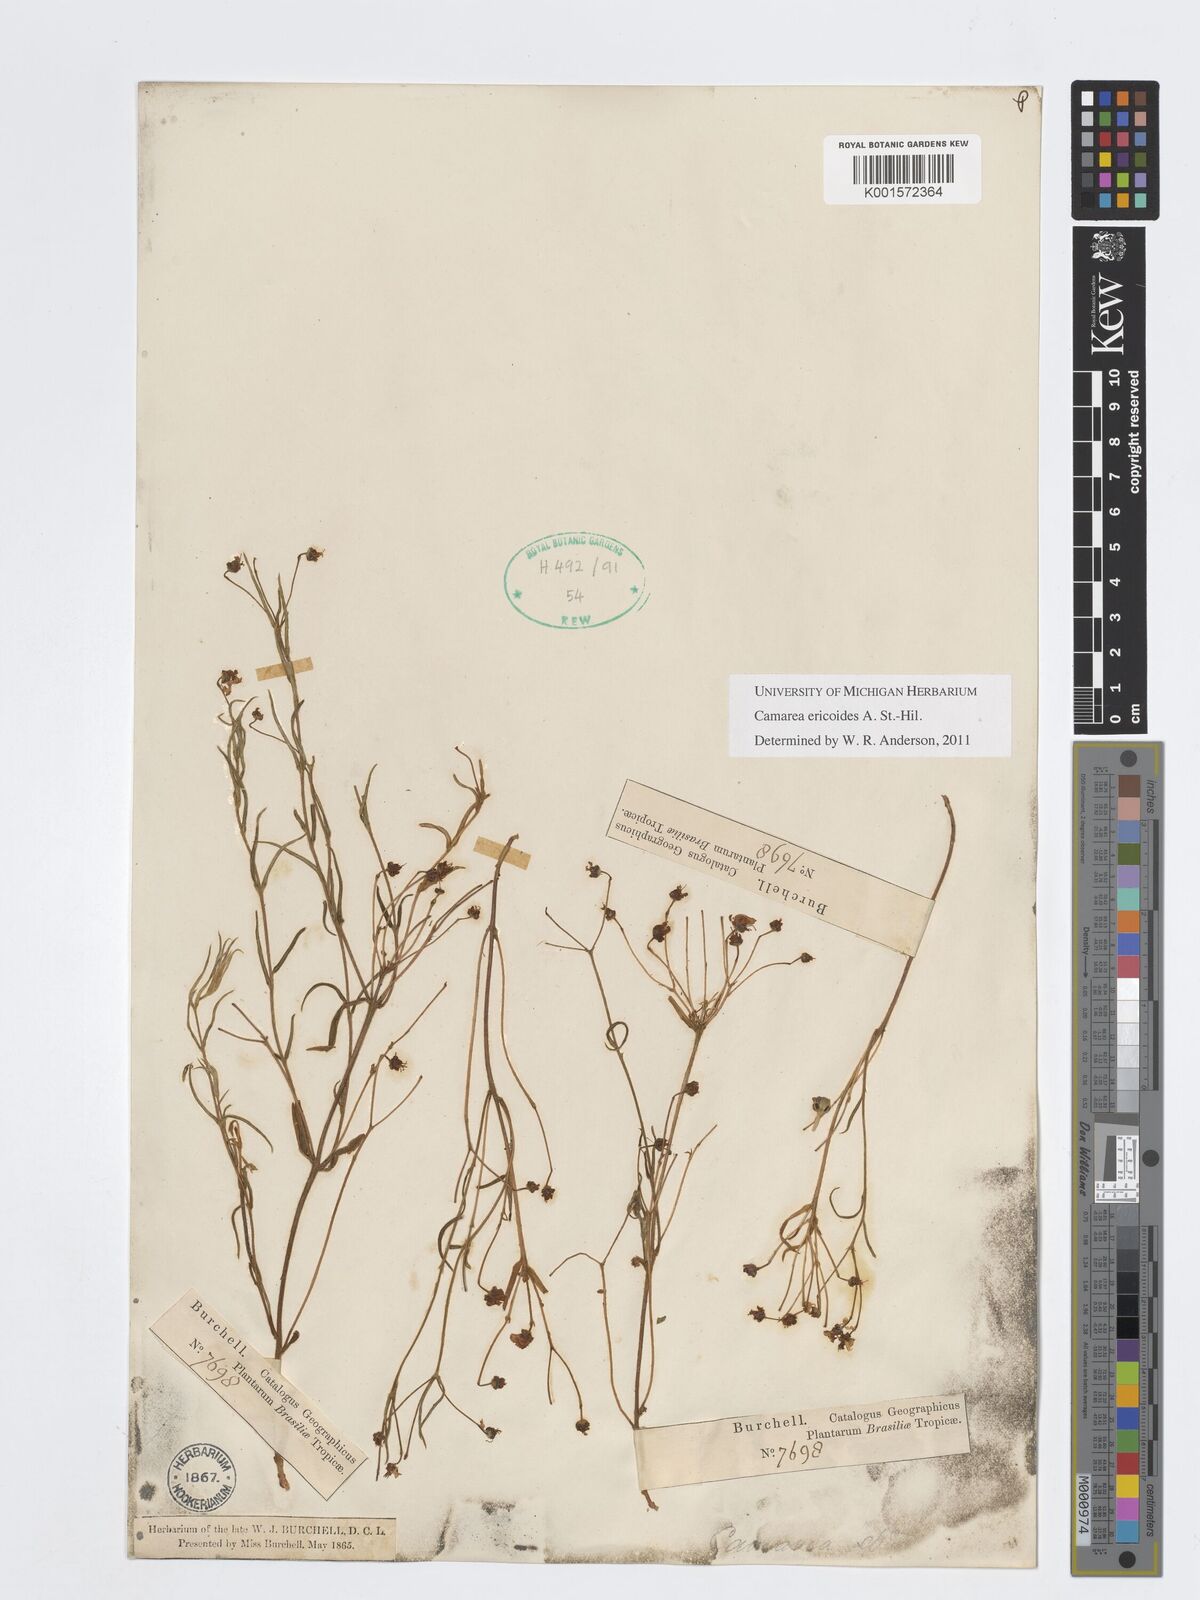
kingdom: Plantae
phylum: Tracheophyta
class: Magnoliopsida
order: Malpighiales
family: Malpighiaceae
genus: Camarea
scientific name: Camarea ericoides
